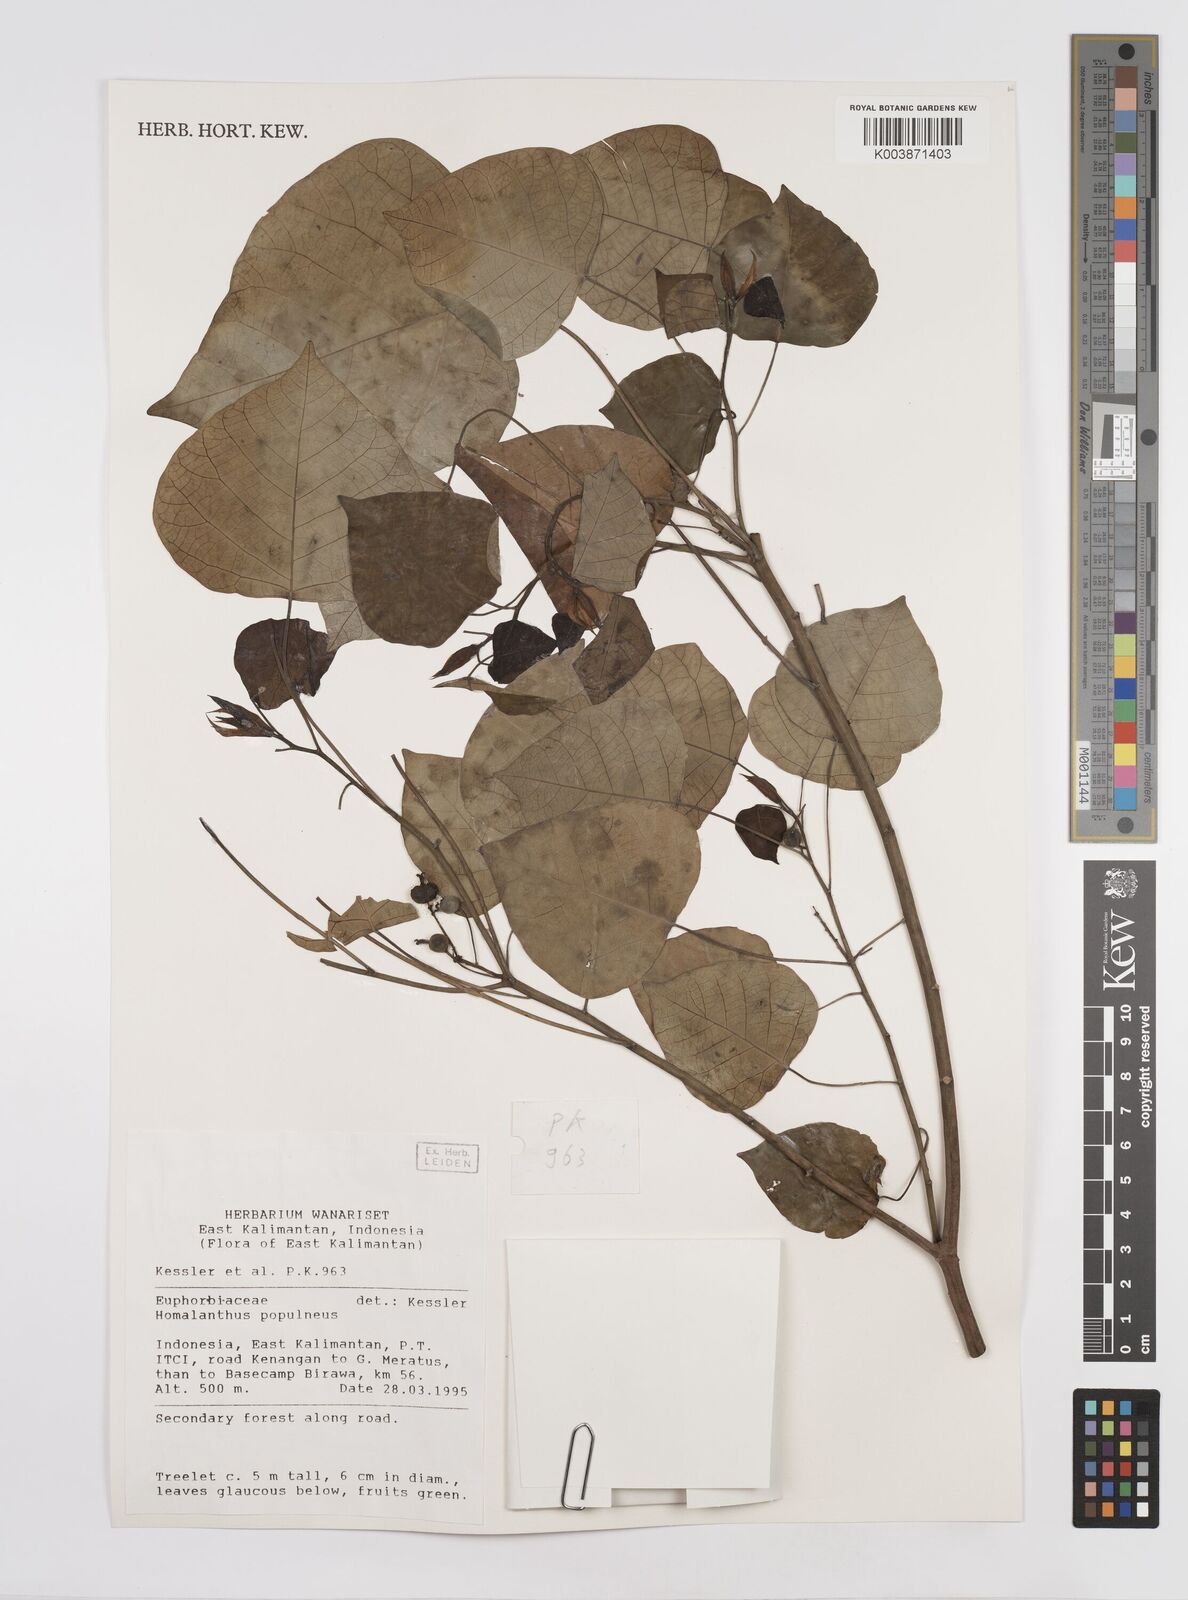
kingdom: Plantae
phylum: Tracheophyta
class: Magnoliopsida
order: Malpighiales
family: Euphorbiaceae
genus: Homalanthus
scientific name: Homalanthus populneus
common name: Spurge
